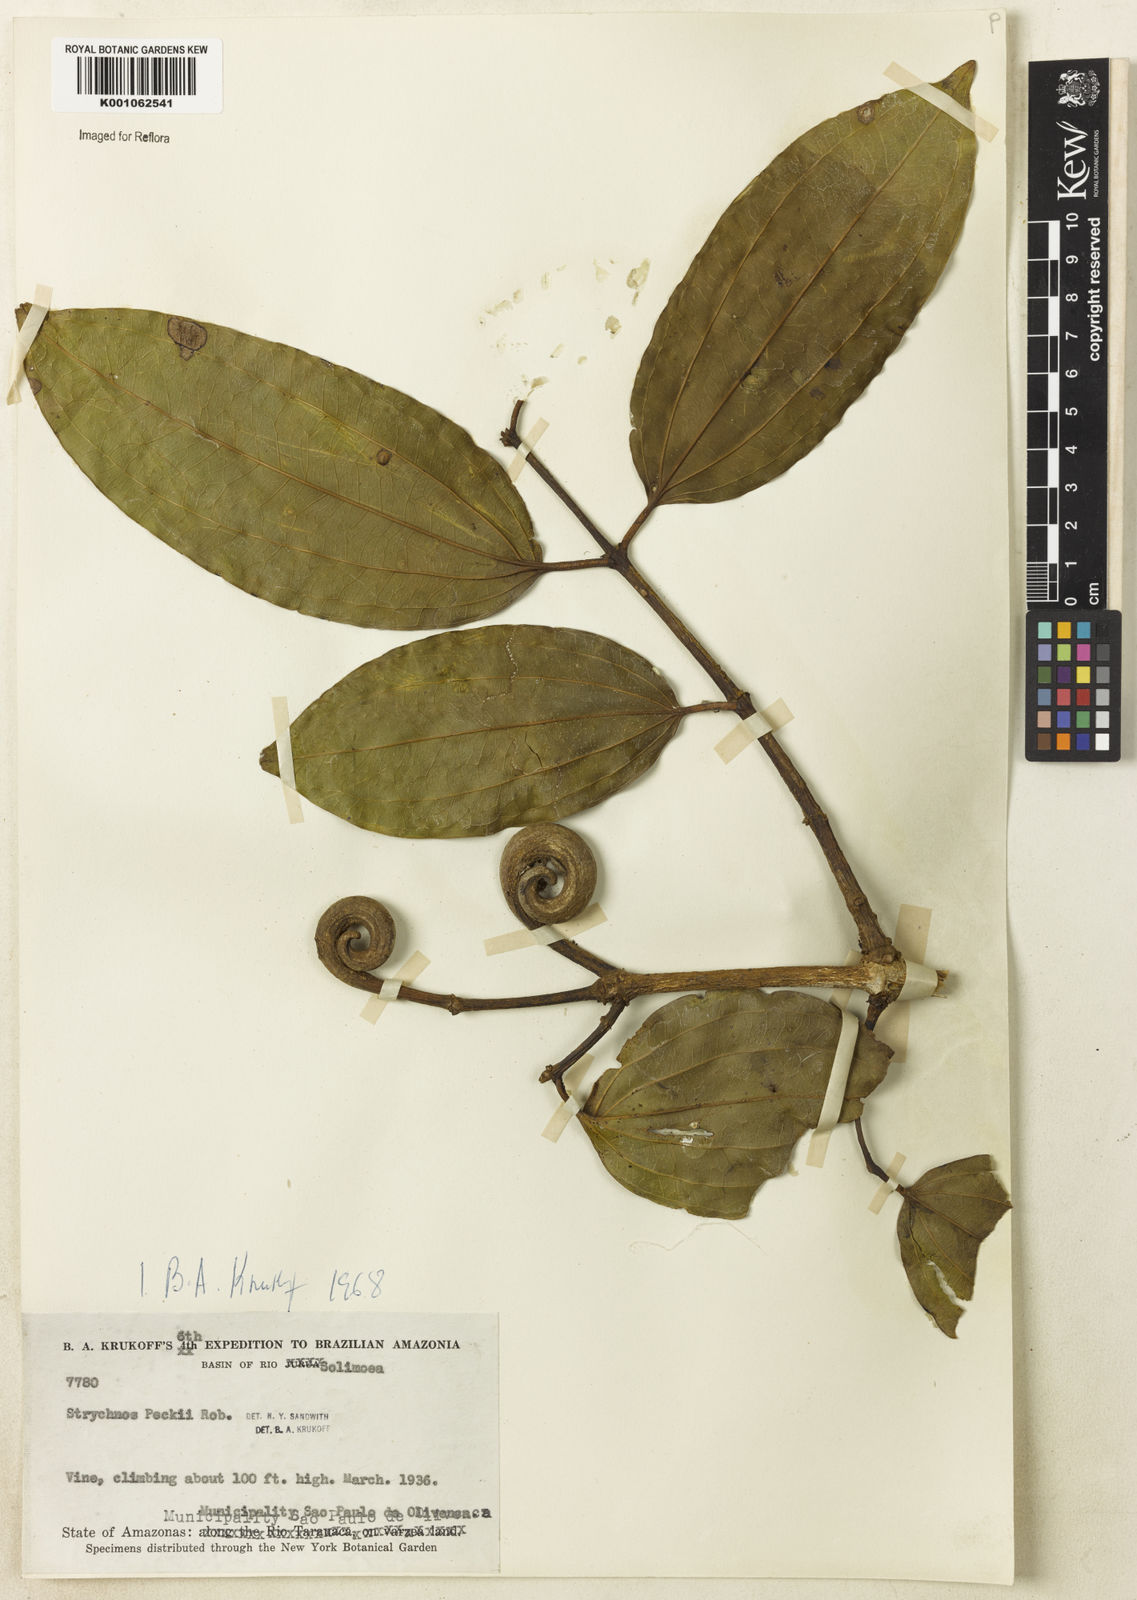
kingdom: Plantae
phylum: Tracheophyta
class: Magnoliopsida
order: Gentianales
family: Loganiaceae
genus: Strychnos
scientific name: Strychnos peckii
